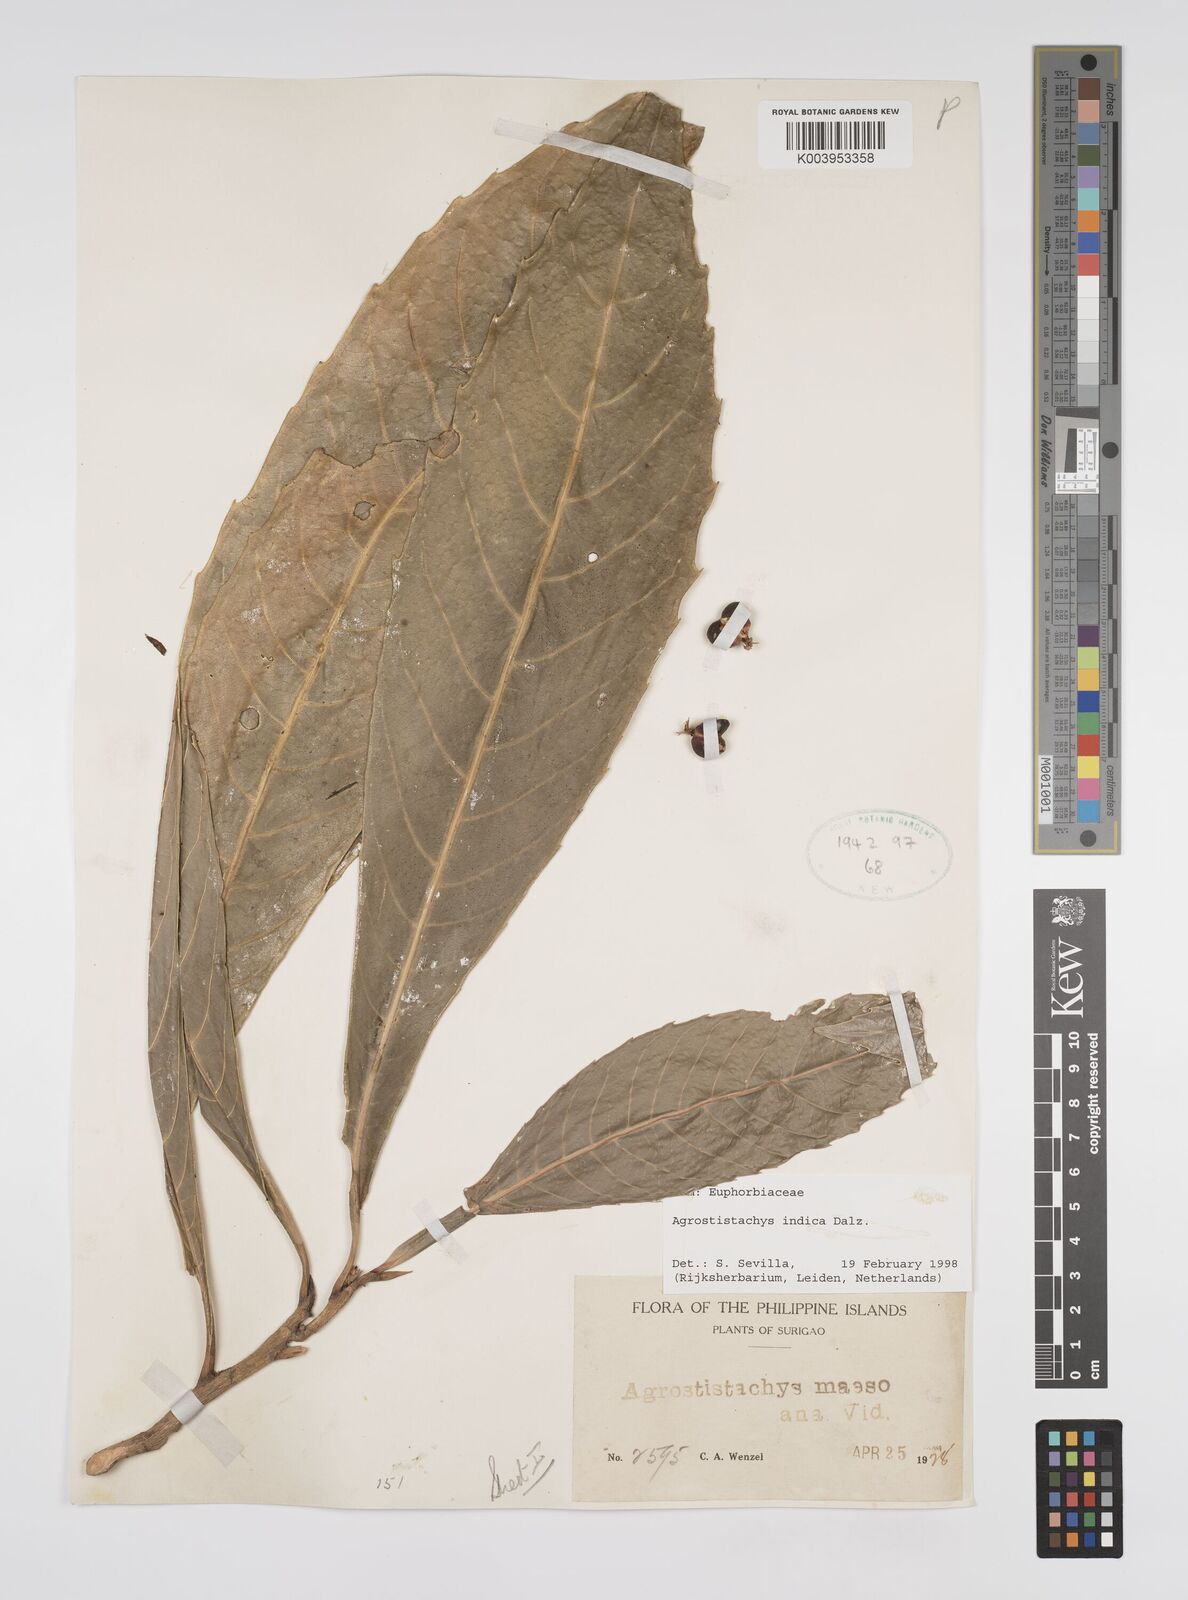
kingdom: Plantae
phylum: Tracheophyta
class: Magnoliopsida
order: Malpighiales
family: Euphorbiaceae
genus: Agrostistachys
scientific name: Agrostistachys indica
